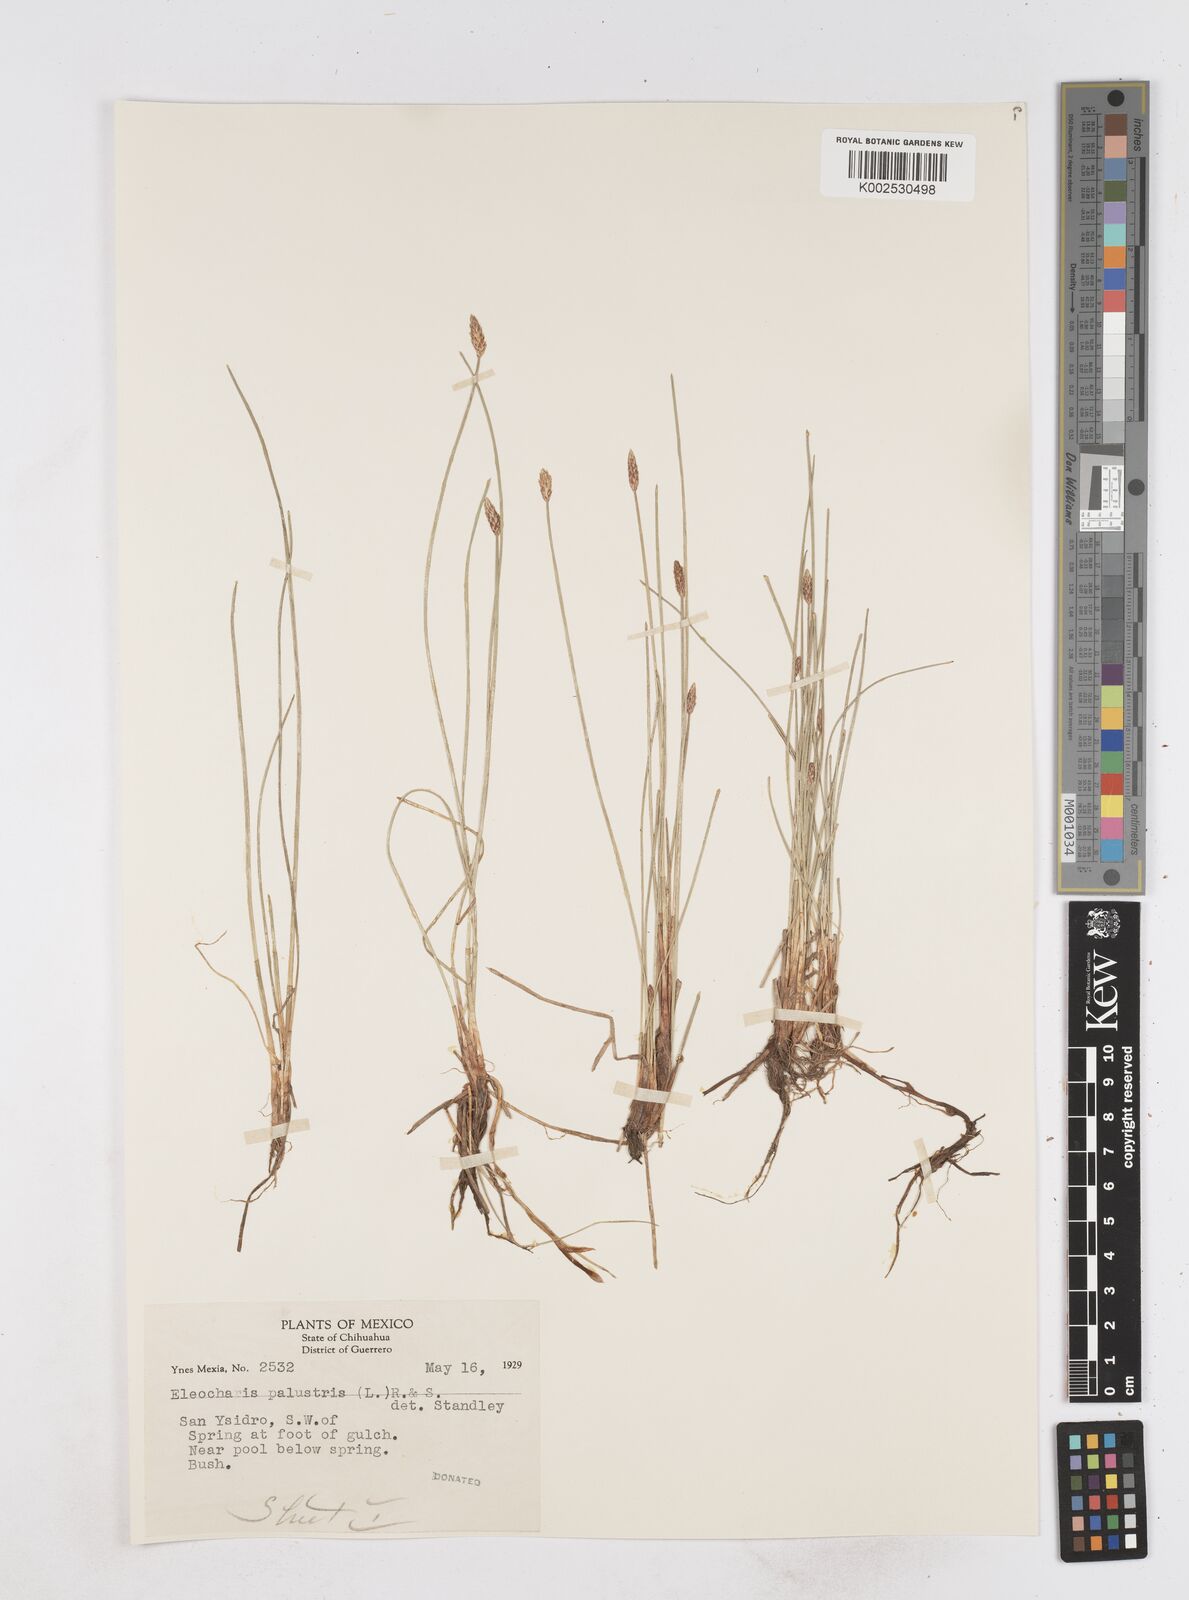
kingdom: Plantae
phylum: Tracheophyta
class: Liliopsida
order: Poales
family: Cyperaceae
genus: Eleocharis
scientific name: Eleocharis palustris
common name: Common spike-rush
